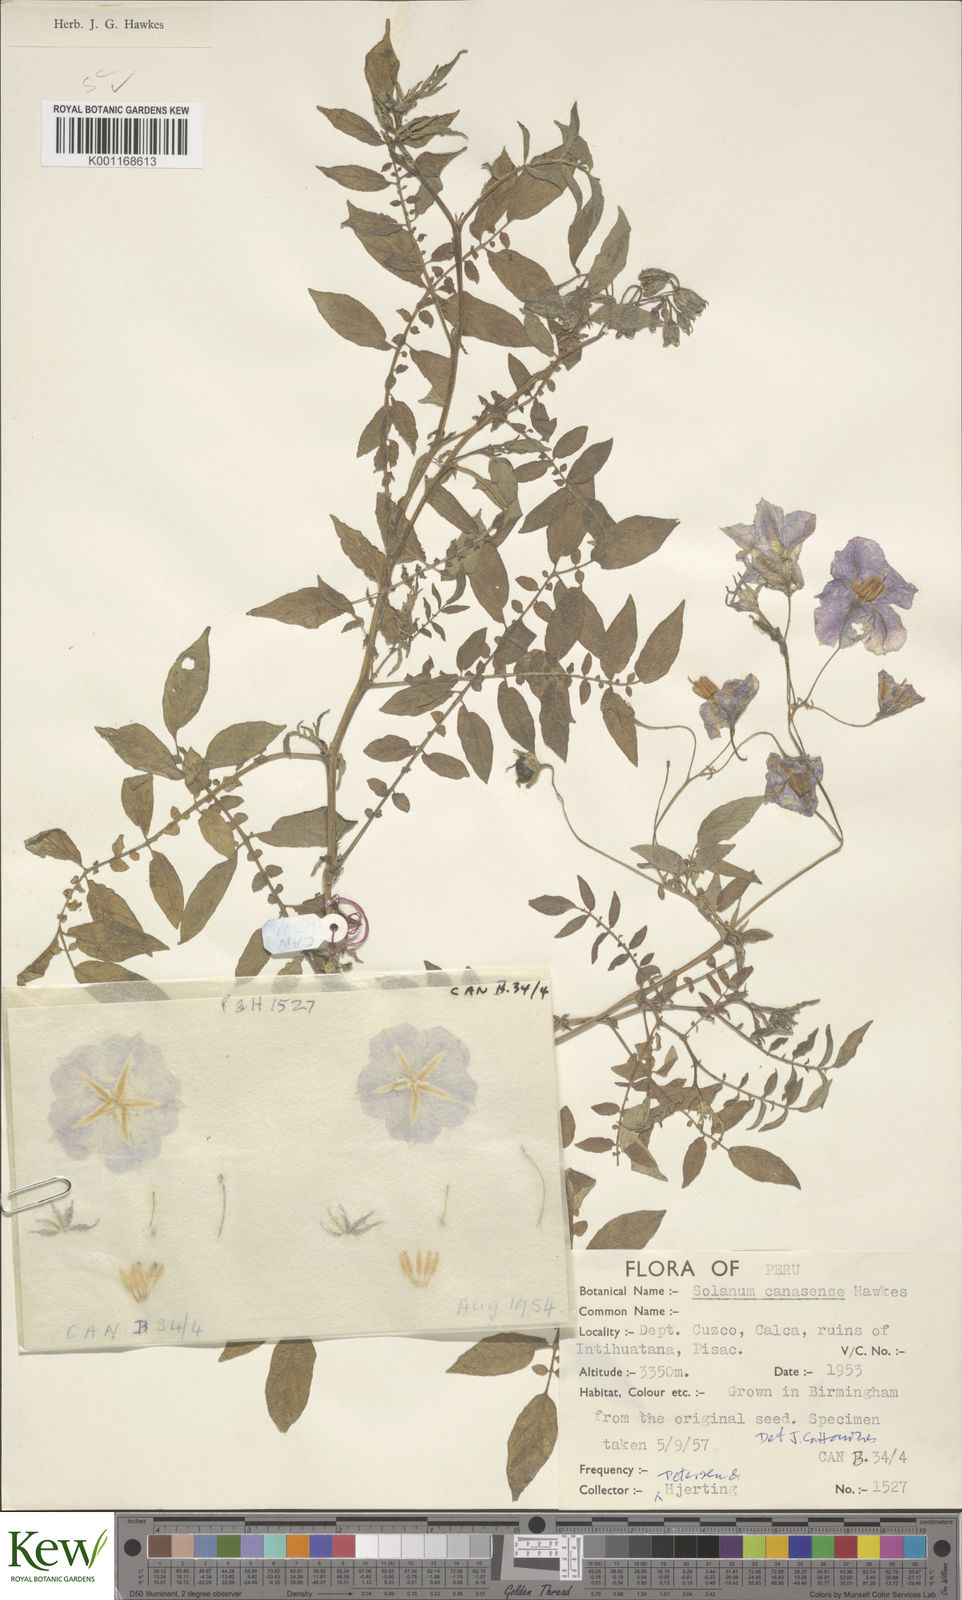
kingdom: Plantae
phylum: Tracheophyta
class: Magnoliopsida
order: Solanales
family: Solanaceae
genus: Solanum
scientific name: Solanum candolleanum
